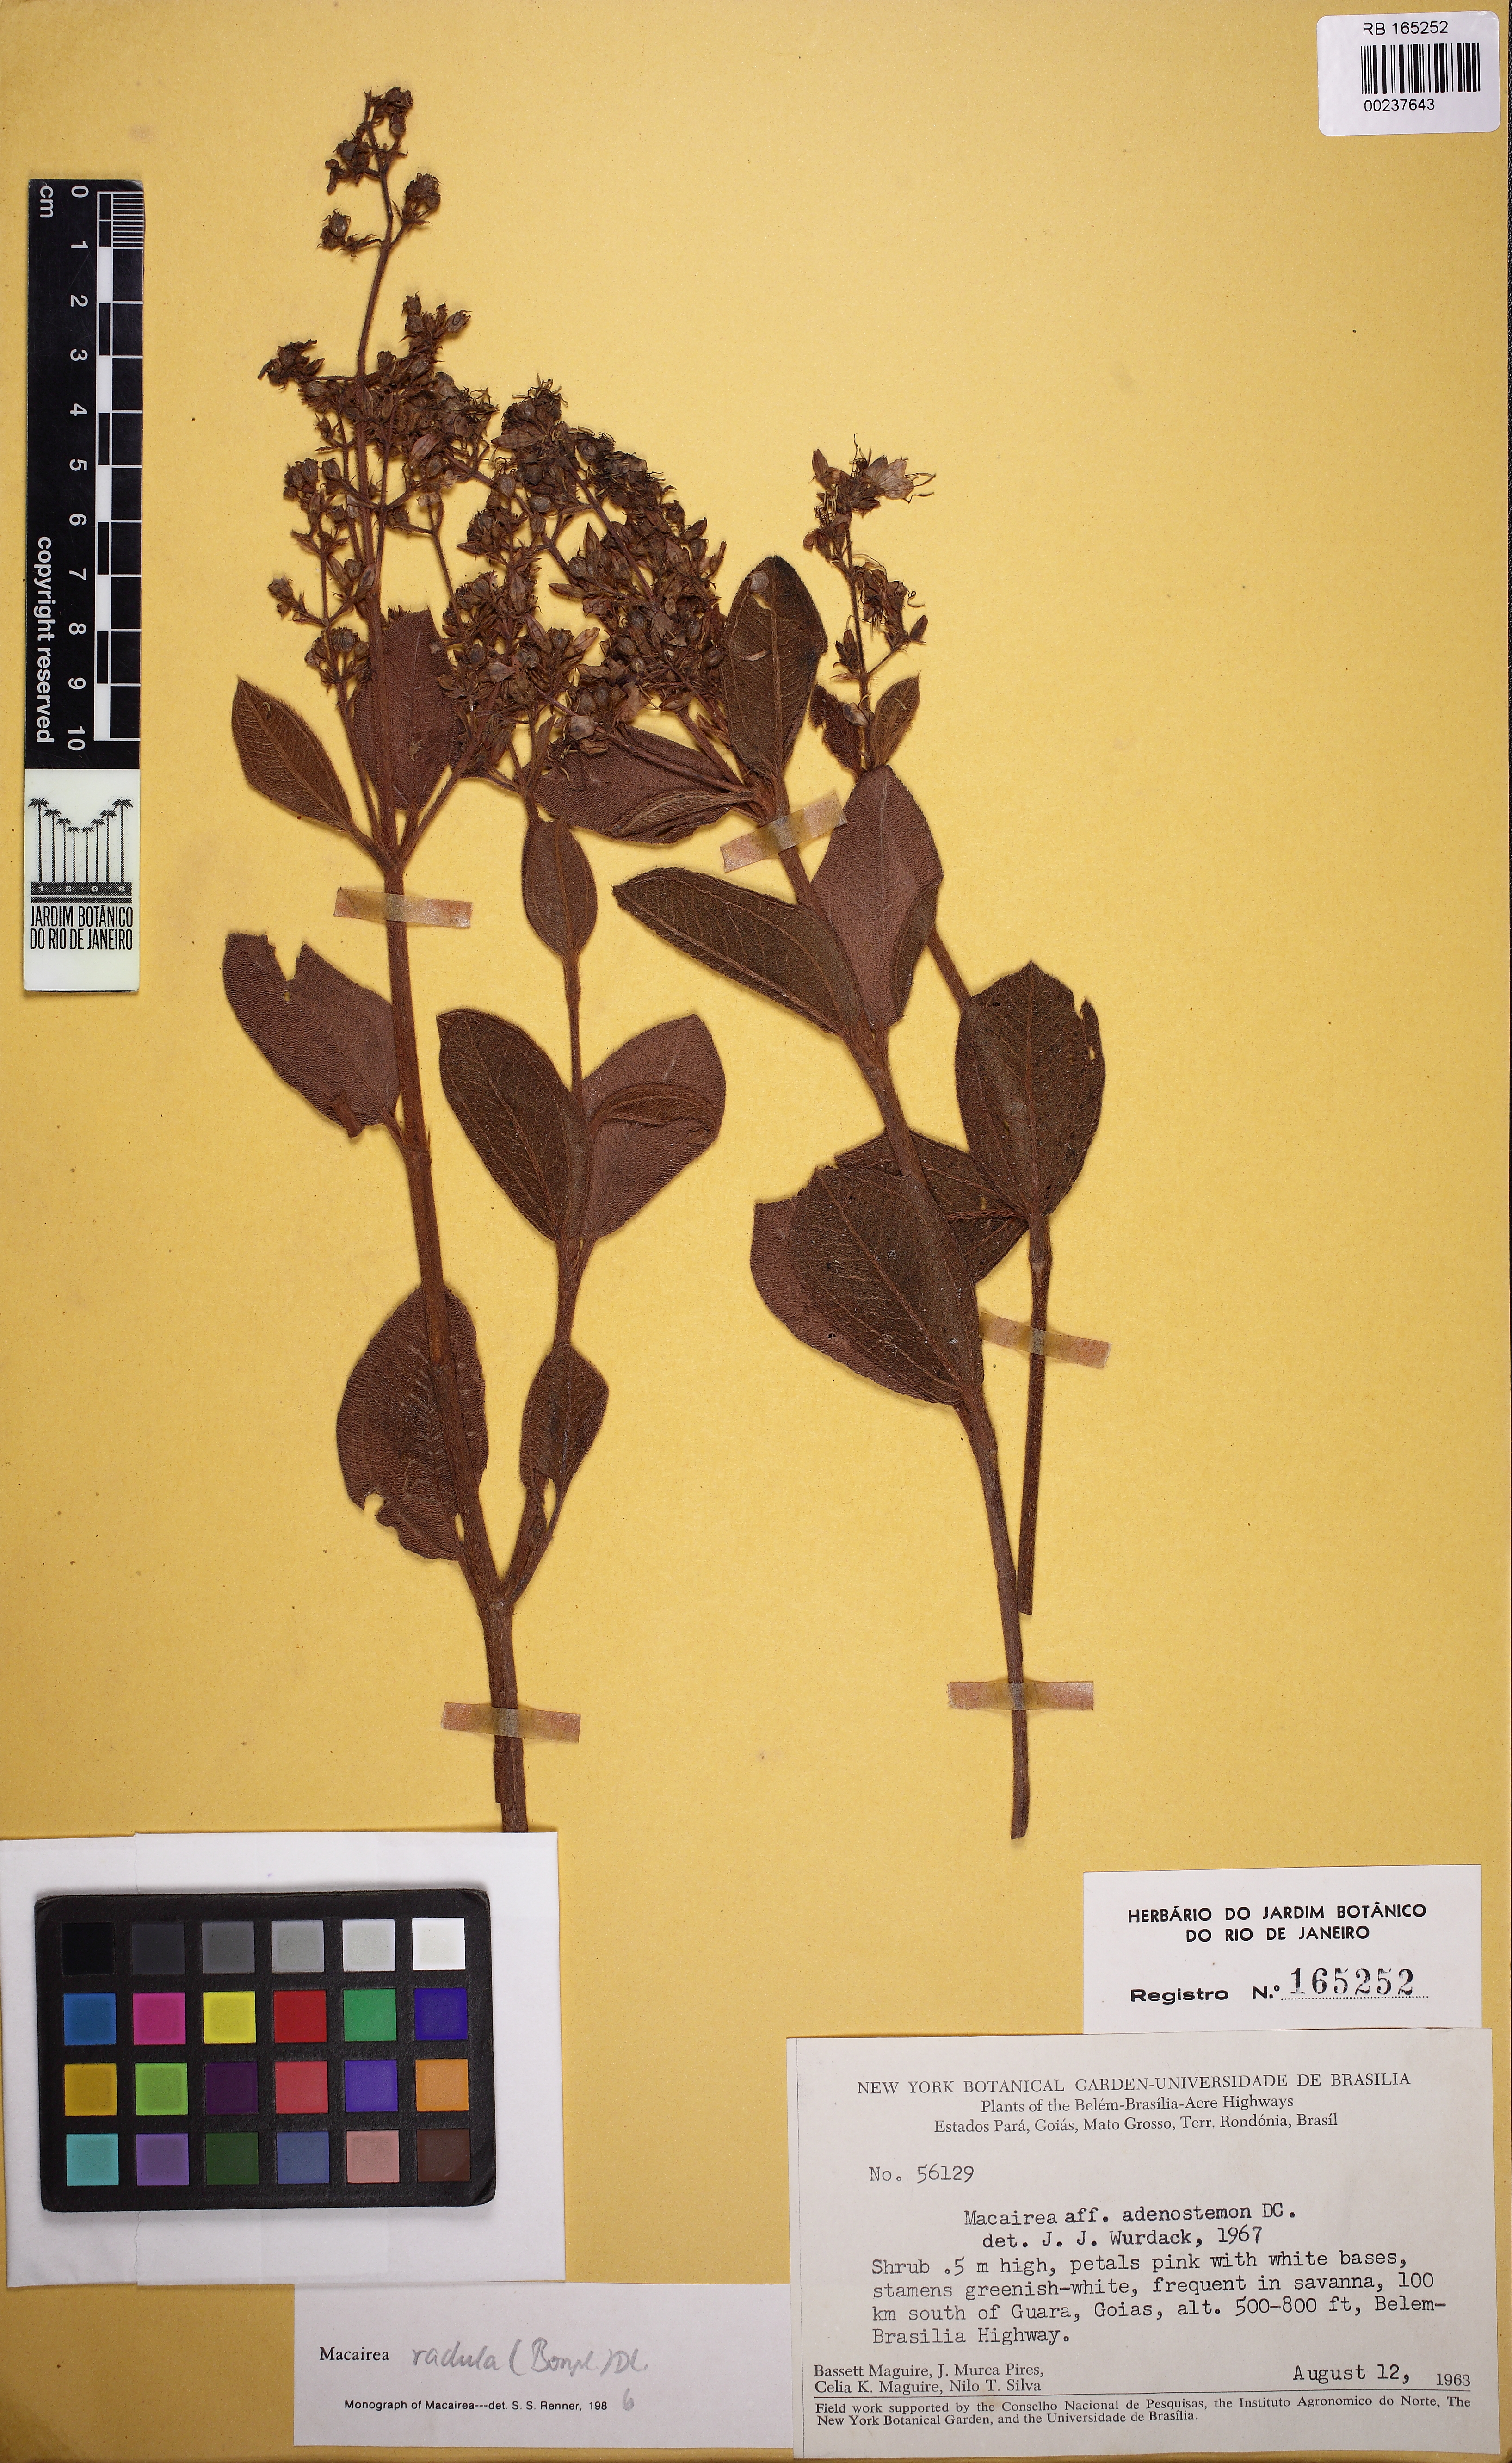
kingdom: Plantae
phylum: Tracheophyta
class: Magnoliopsida
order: Myrtales
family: Melastomataceae
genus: Macairea
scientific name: Macairea radula
